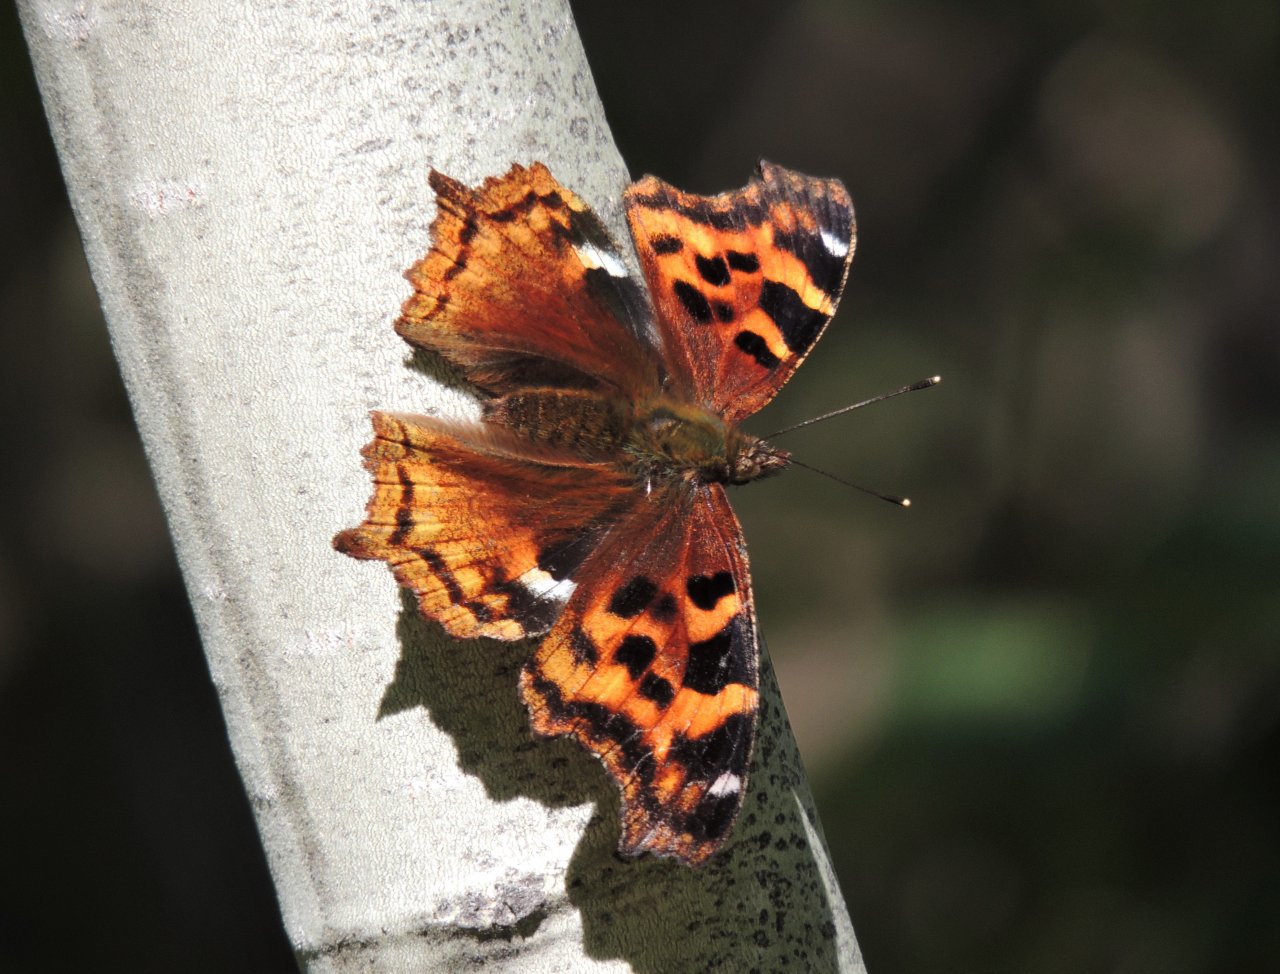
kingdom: Animalia
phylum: Arthropoda
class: Insecta
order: Lepidoptera
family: Nymphalidae
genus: Polygonia
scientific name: Polygonia vaualbum
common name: Compton Tortoiseshell
